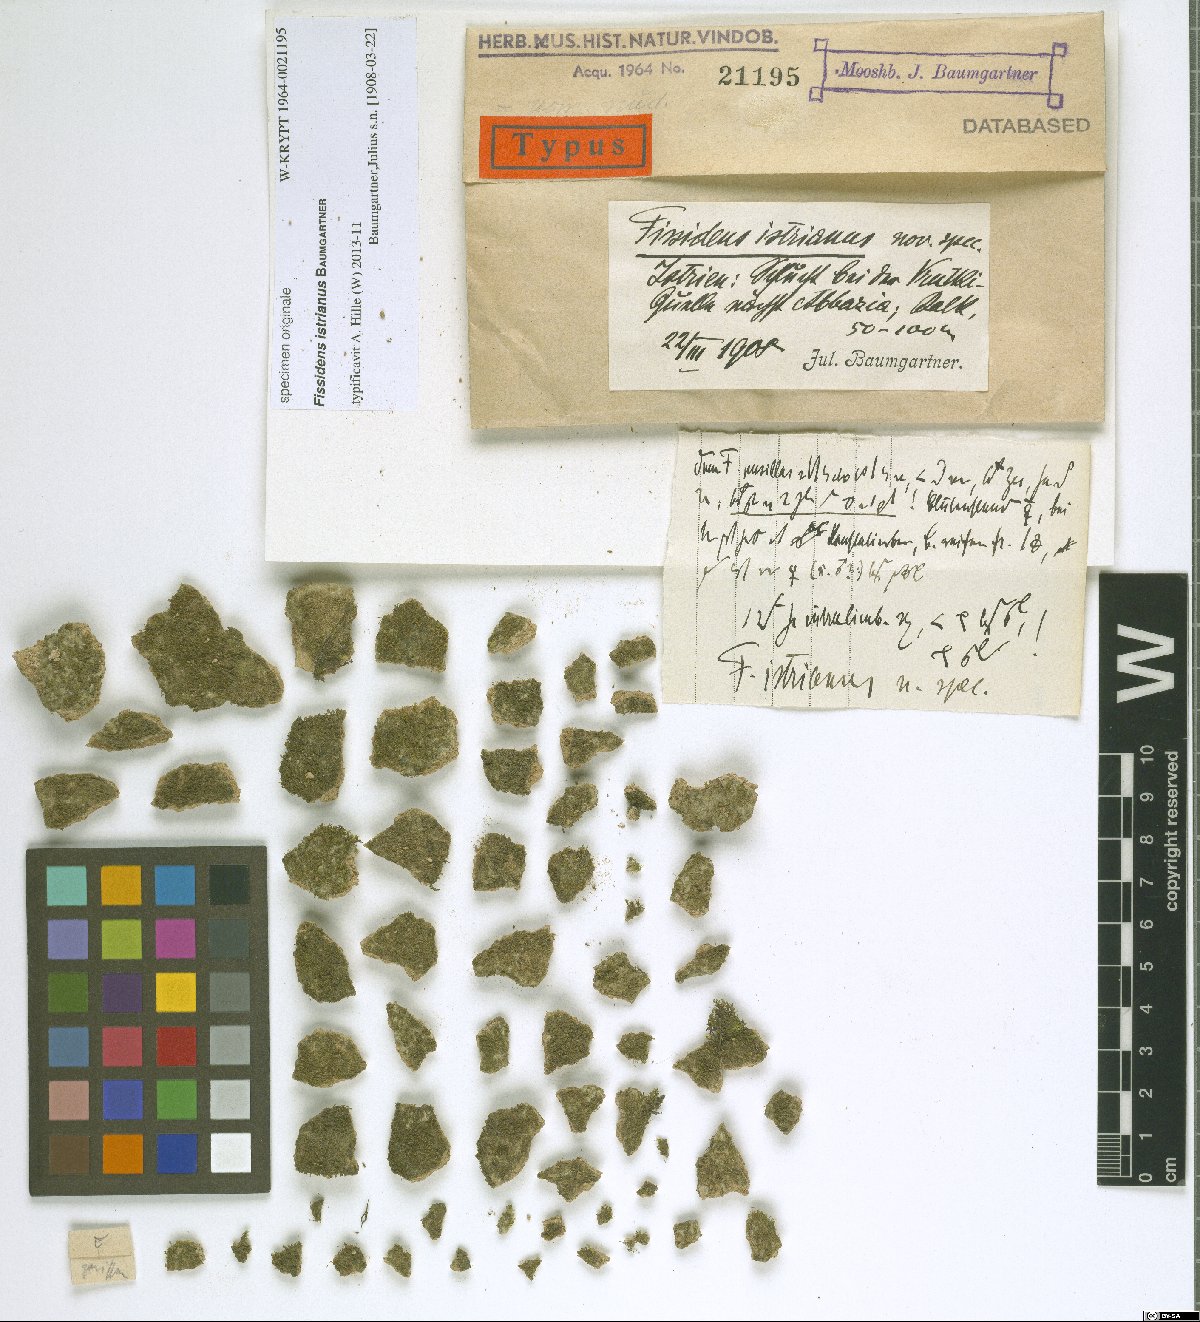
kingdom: Plantae
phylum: Bryophyta
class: Bryopsida
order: Dicranales
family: Fissidentaceae
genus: Fissidens
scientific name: Fissidens
